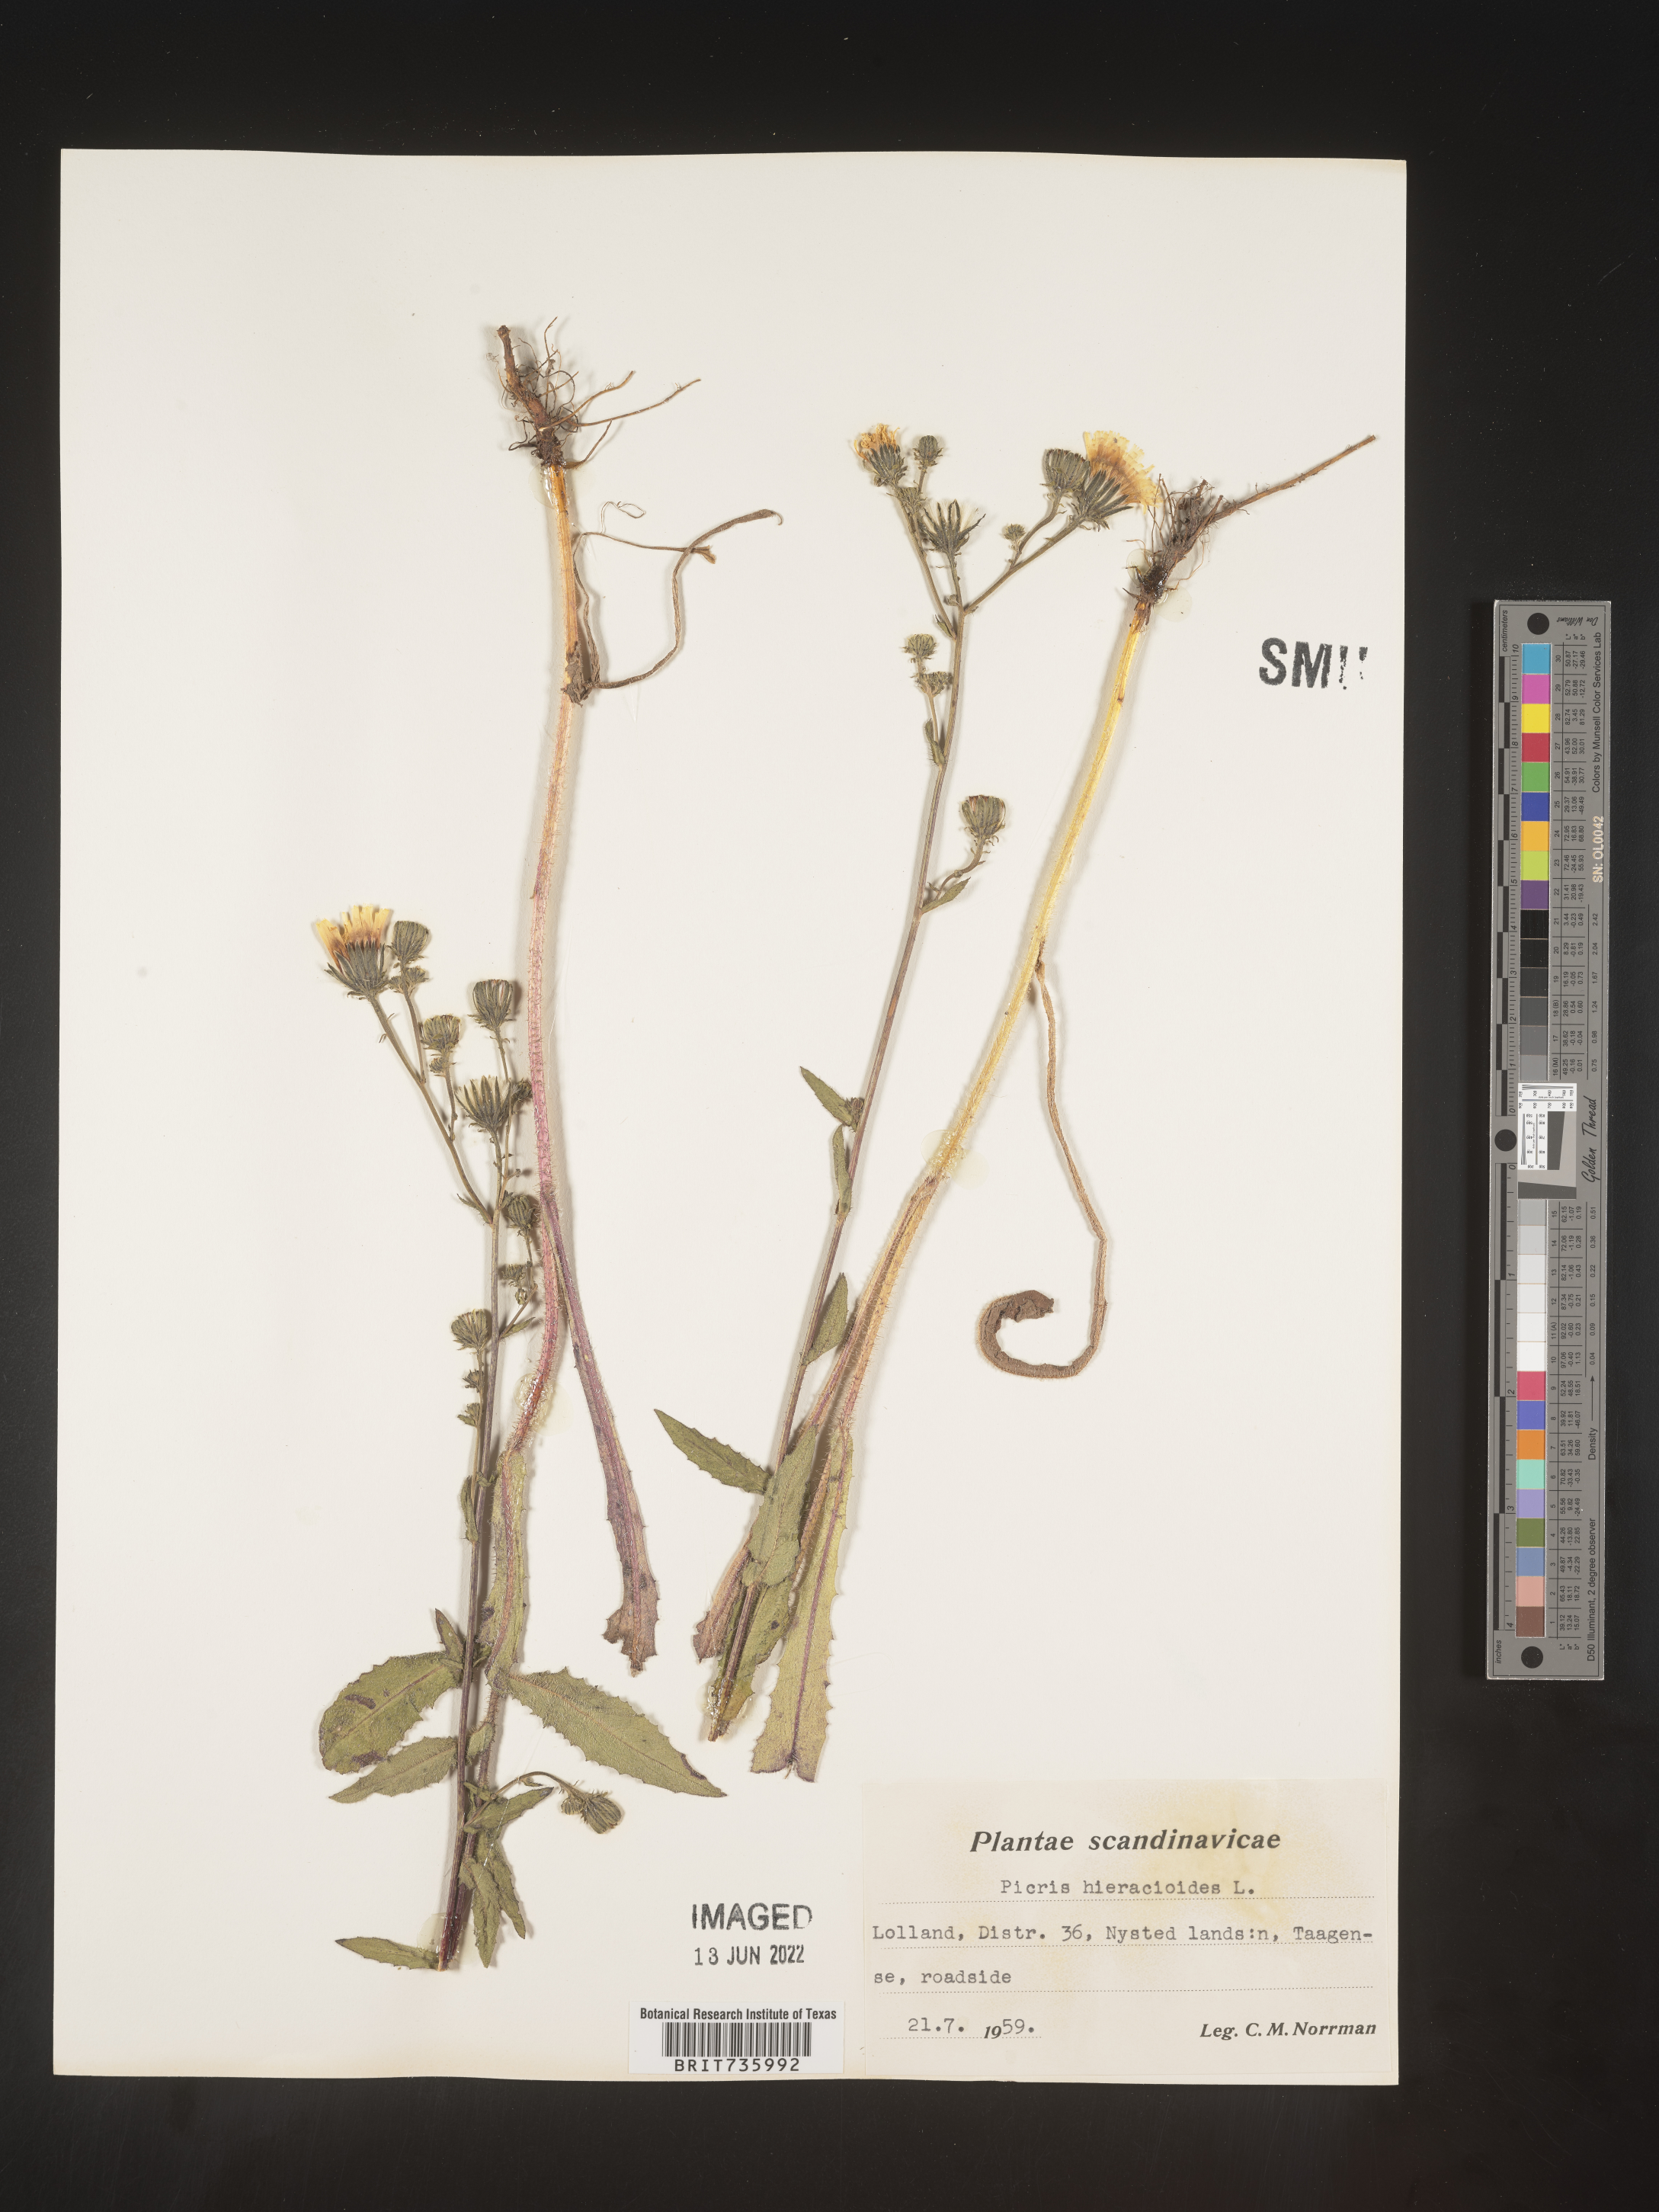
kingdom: Plantae
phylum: Tracheophyta
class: Magnoliopsida
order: Asterales
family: Asteraceae
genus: Picris
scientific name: Picris
